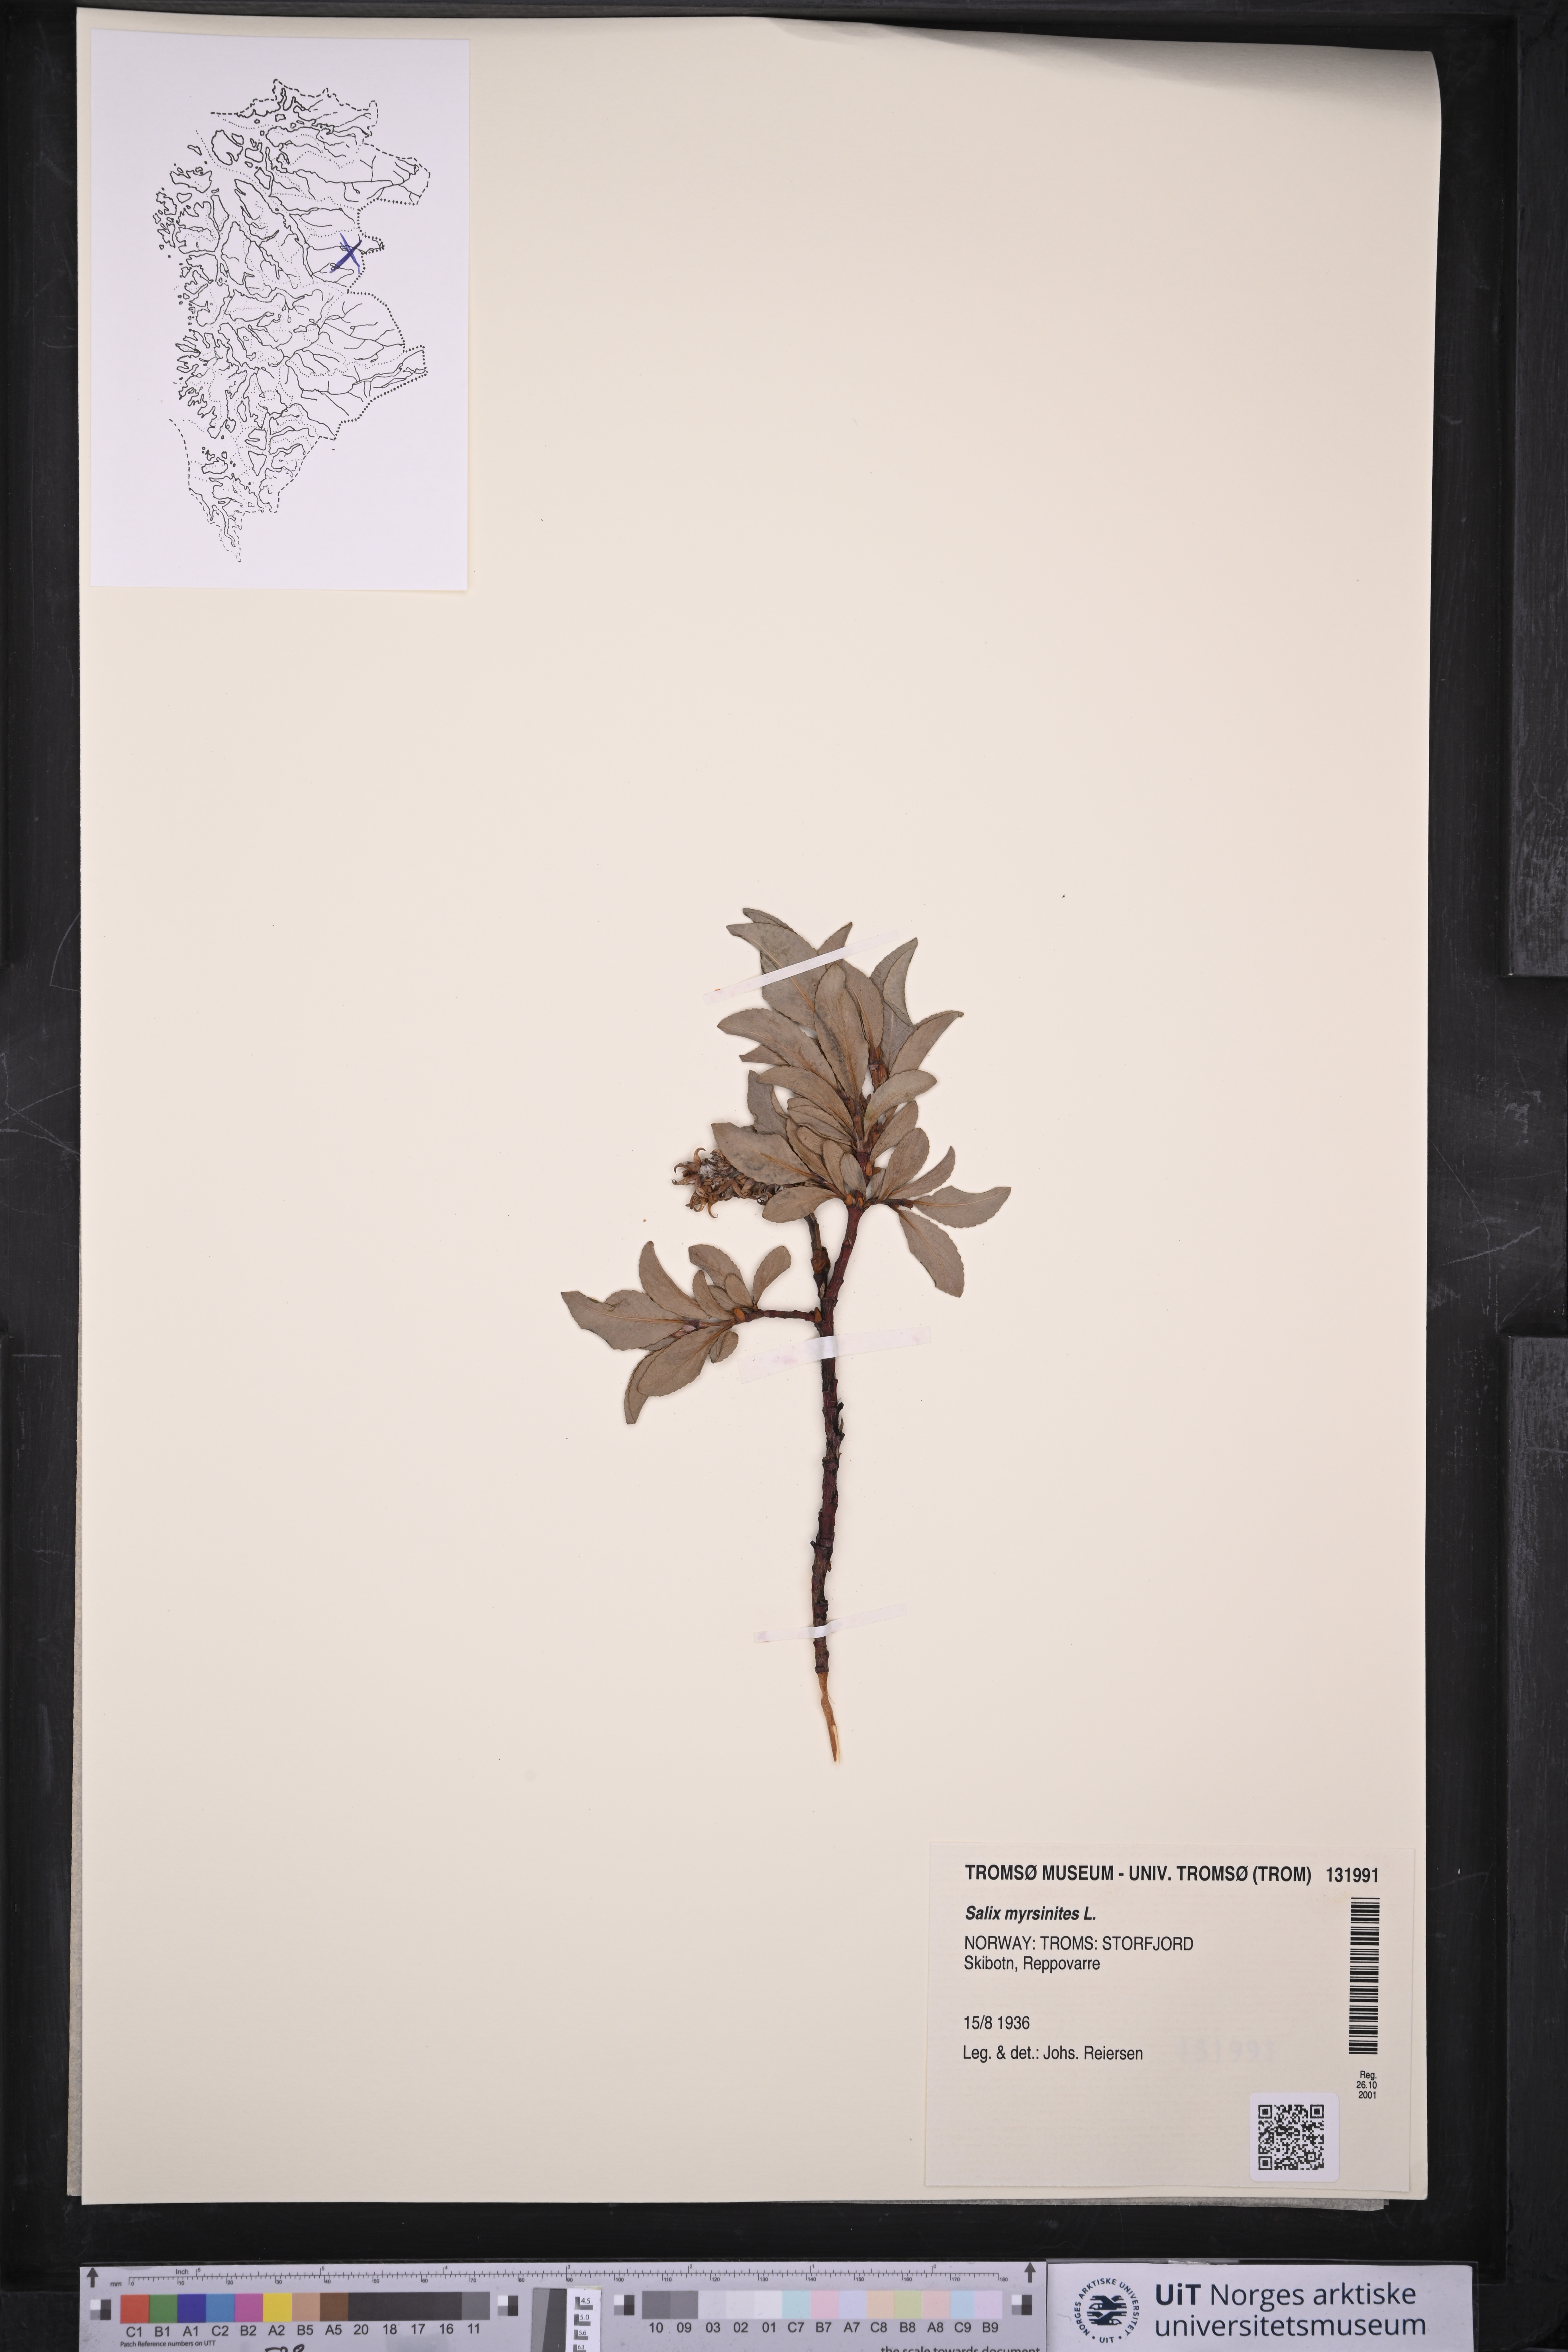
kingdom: Plantae
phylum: Tracheophyta
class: Magnoliopsida
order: Malpighiales
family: Salicaceae
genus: Salix
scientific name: Salix myrsinites
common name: Myrtle willow
